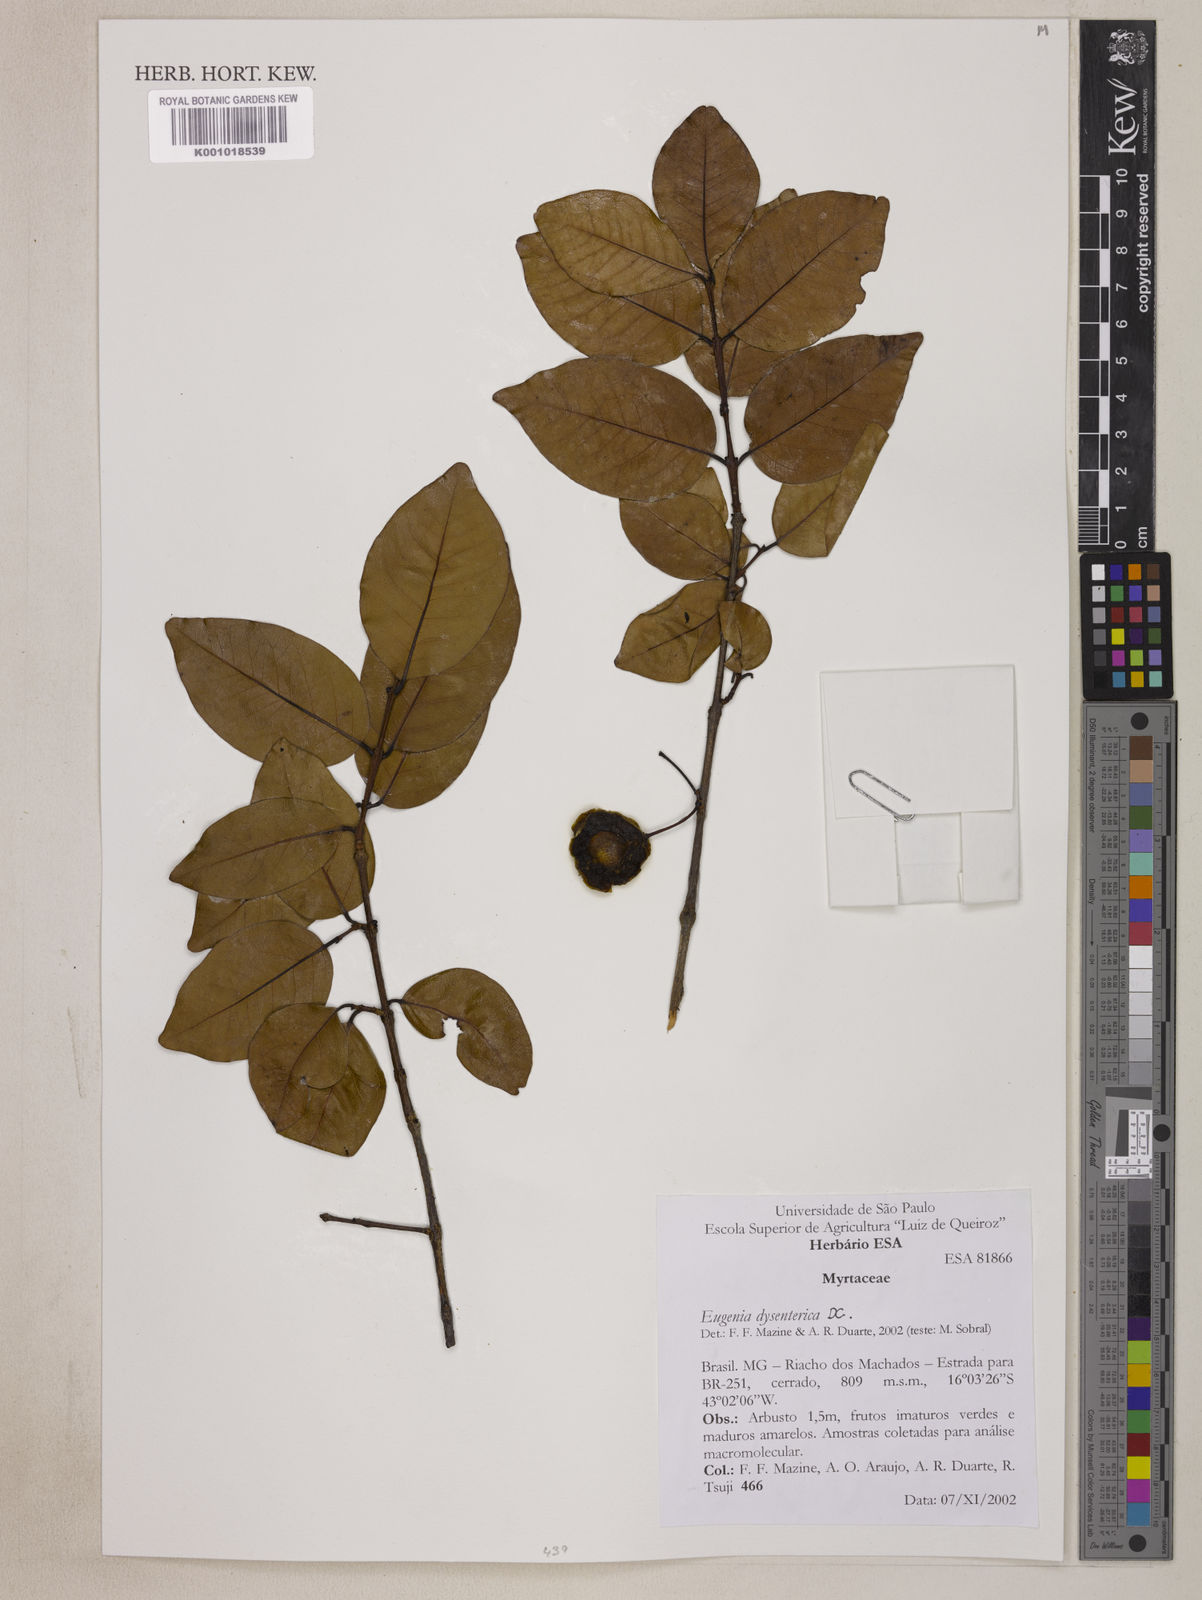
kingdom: Plantae
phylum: Tracheophyta
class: Magnoliopsida
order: Myrtales
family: Myrtaceae
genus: Eugenia
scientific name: Eugenia dysenterica
